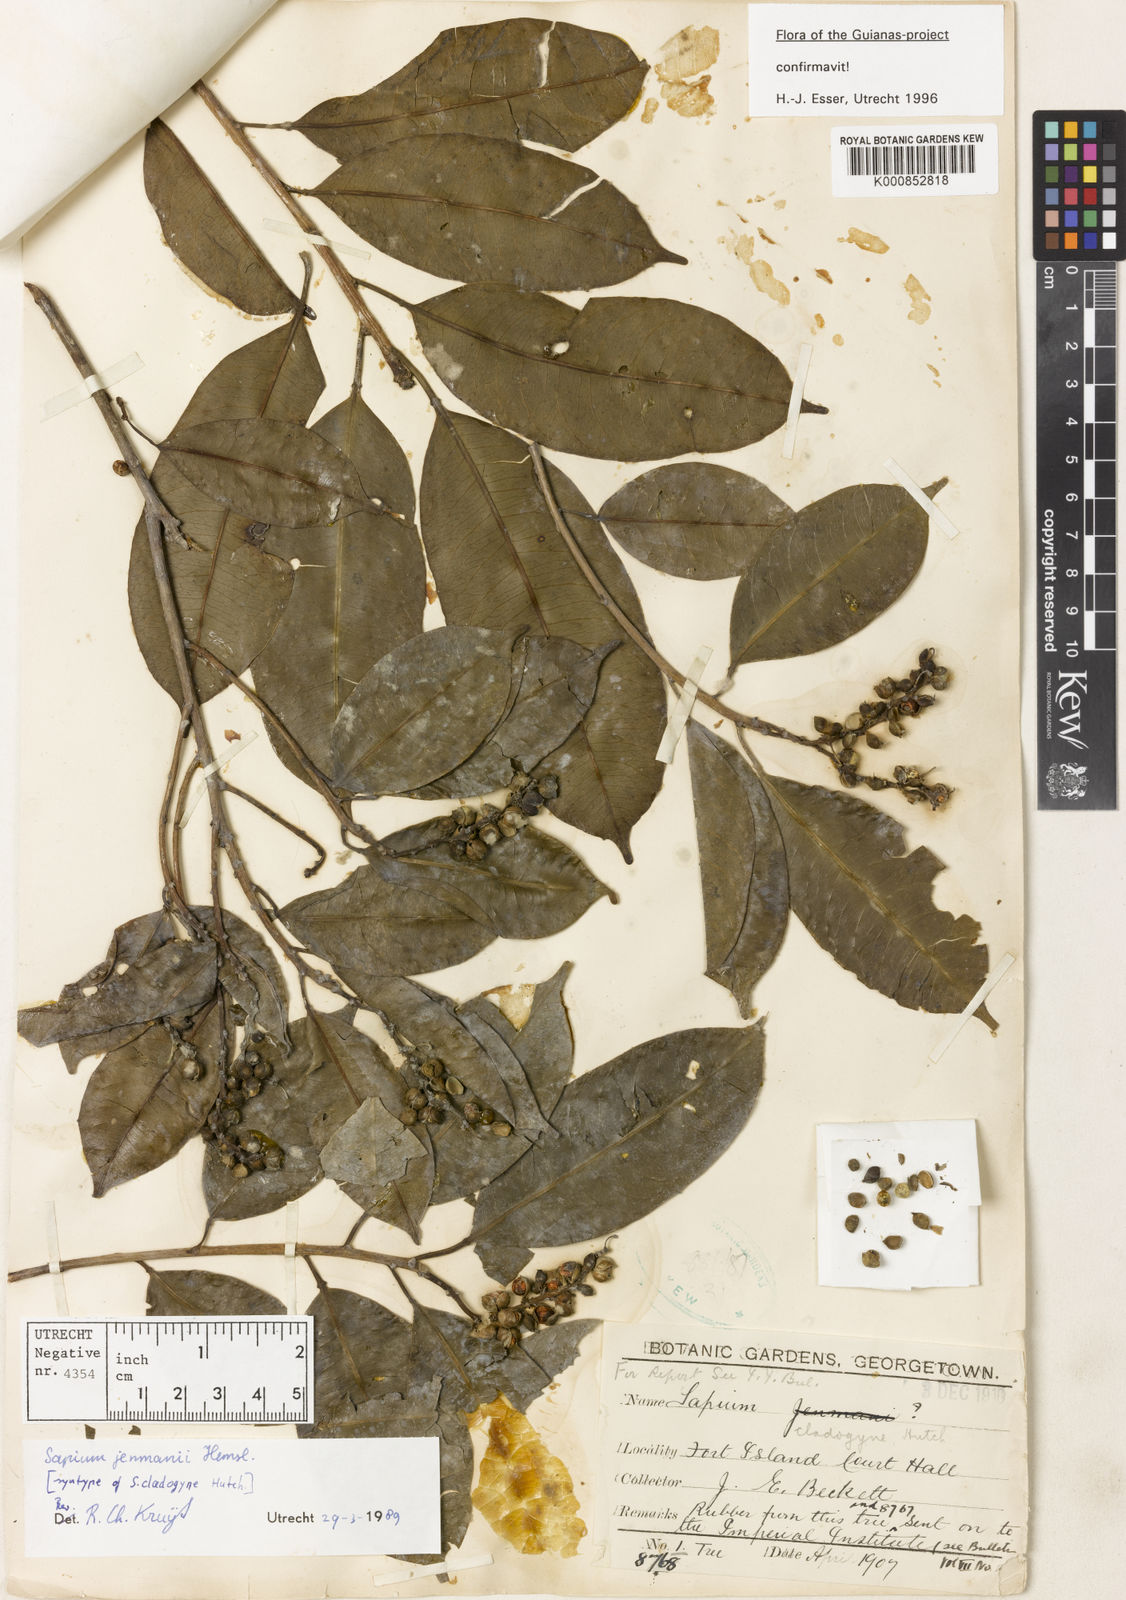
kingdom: Plantae
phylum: Tracheophyta
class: Magnoliopsida
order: Malpighiales
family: Euphorbiaceae
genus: Sapium
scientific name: Sapium jenmannii
